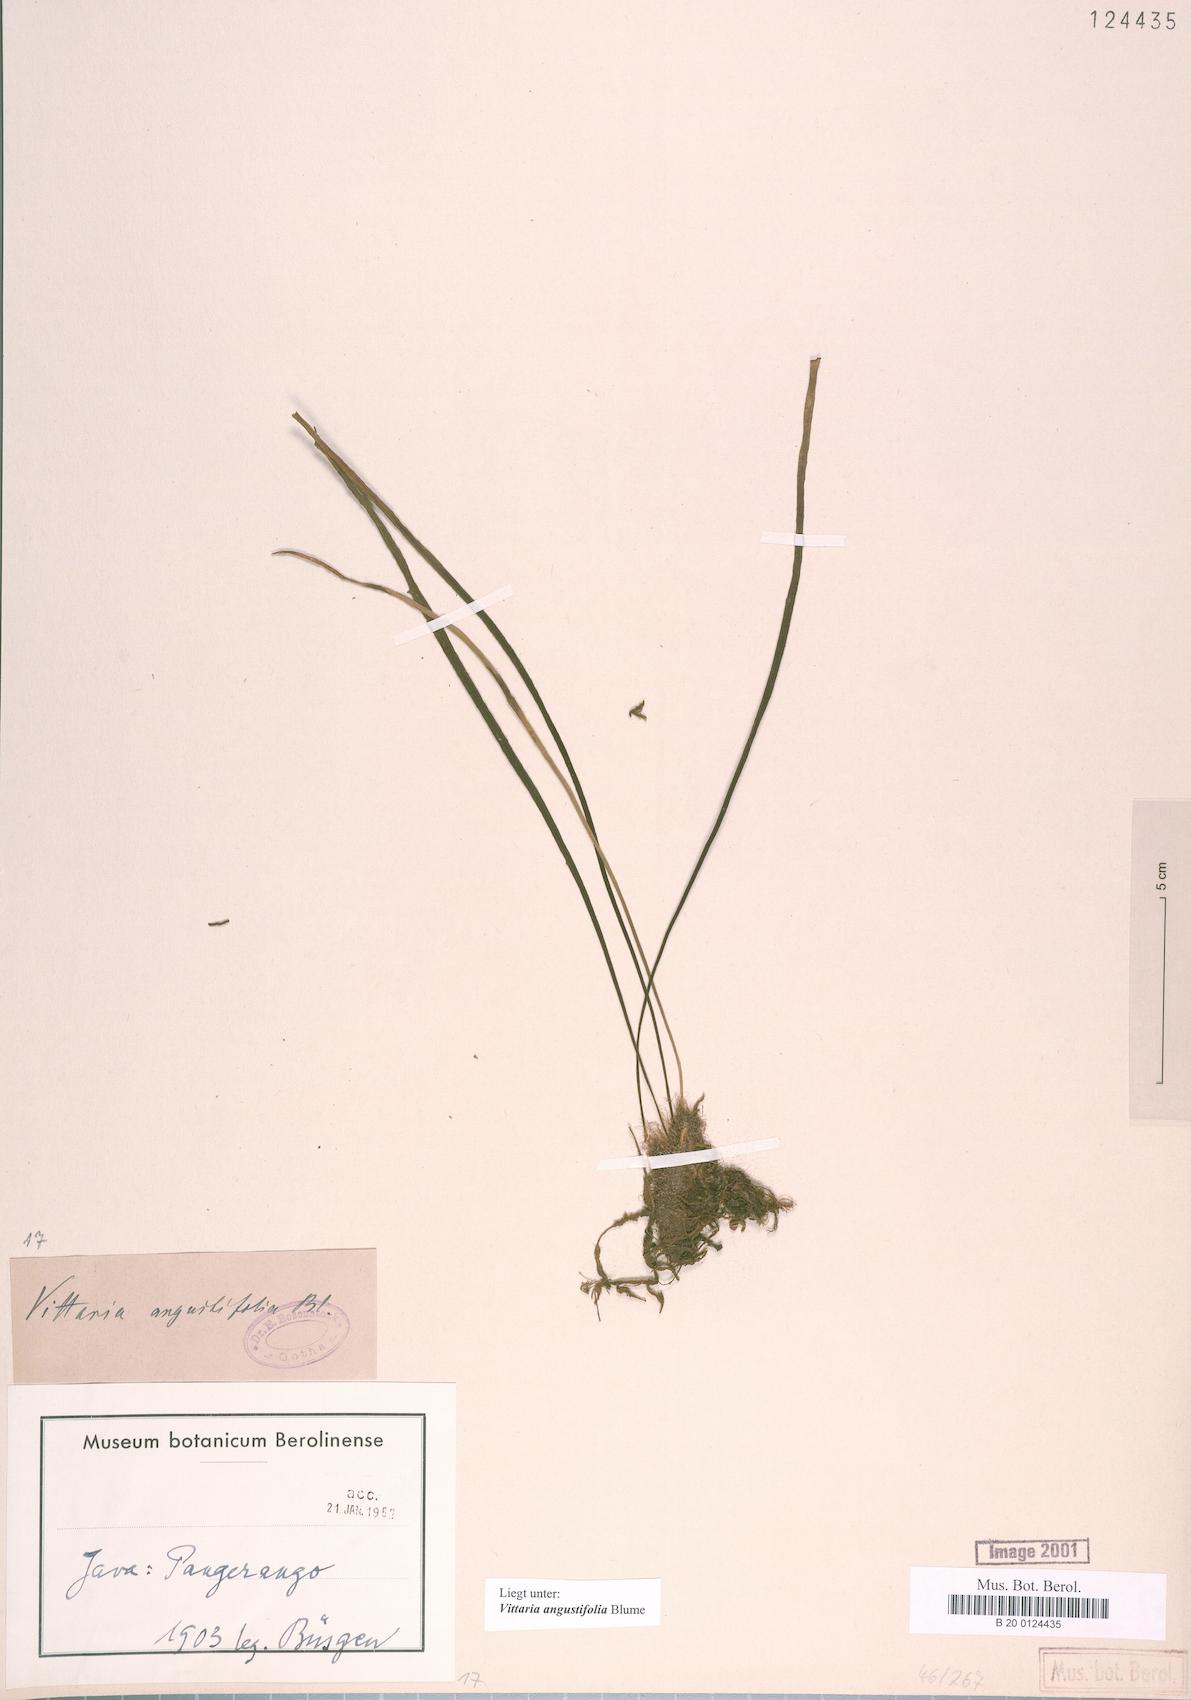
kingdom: Plantae
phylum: Tracheophyta
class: Polypodiopsida
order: Polypodiales
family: Pteridaceae
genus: Ananthacorus
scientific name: Ananthacorus angustifolius
